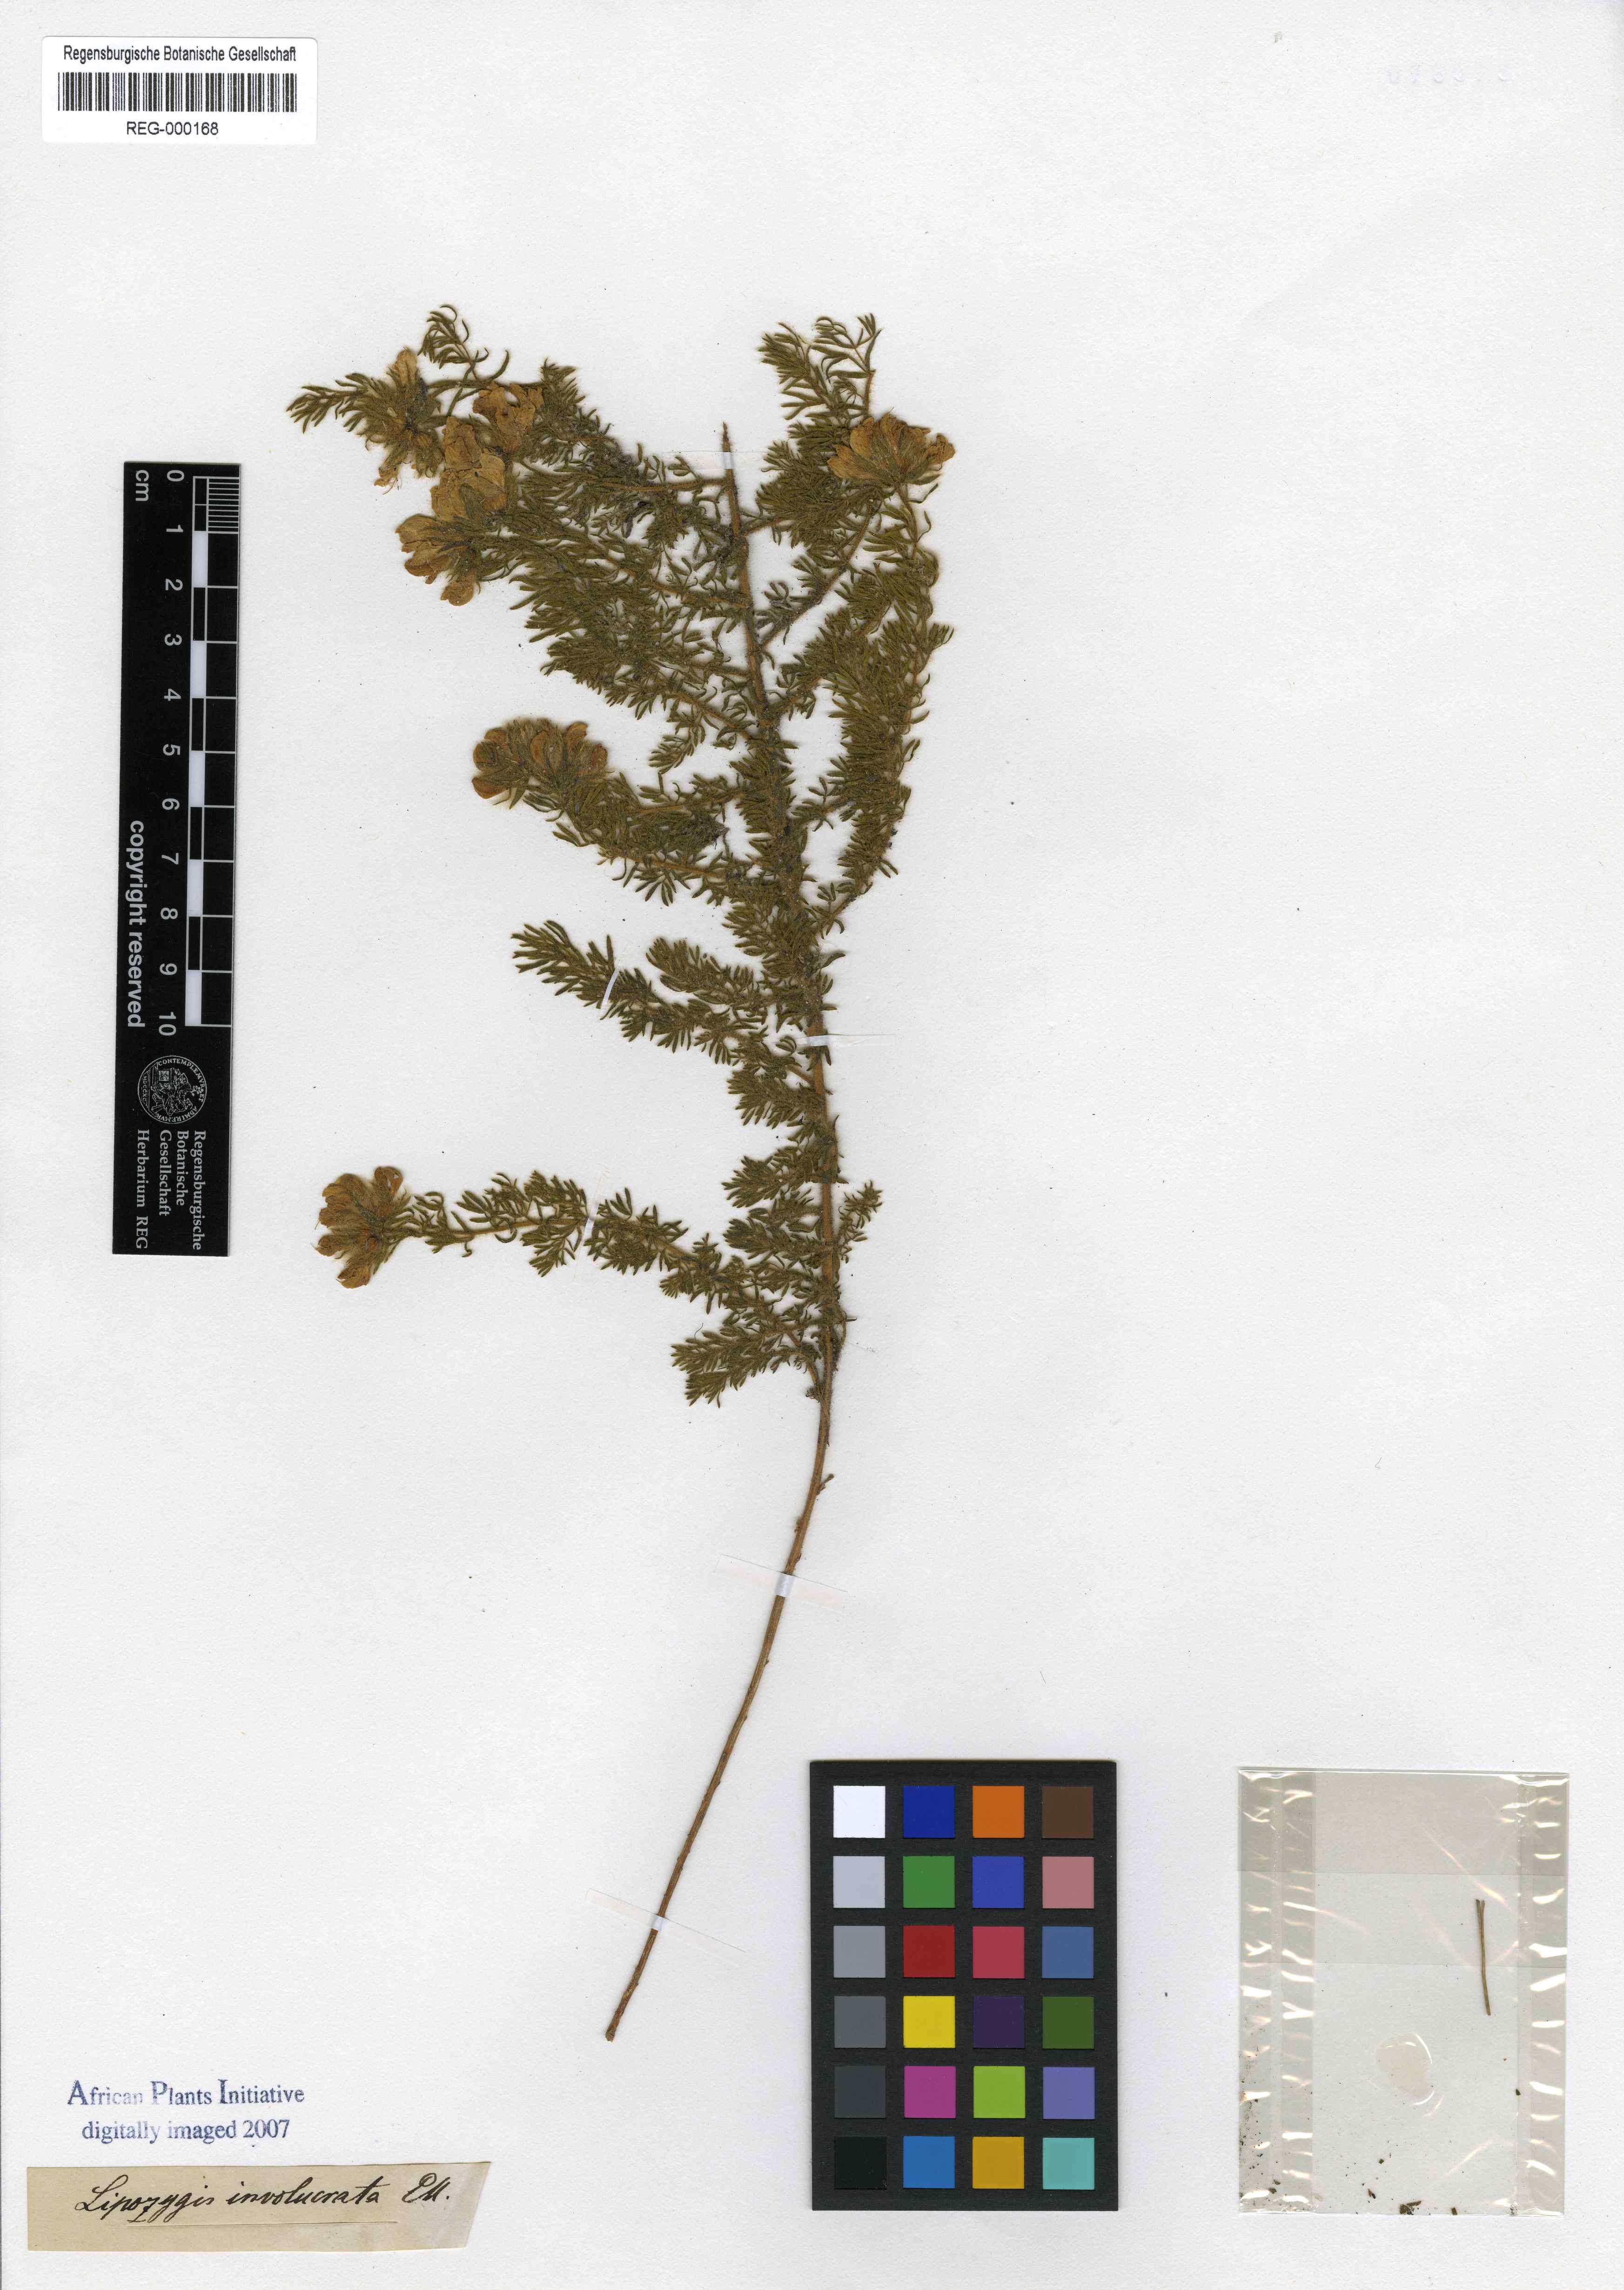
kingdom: Plantae
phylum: Tracheophyta
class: Magnoliopsida
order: Fabales
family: Fabaceae
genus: Lotononis
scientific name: Lotononis involucrata
